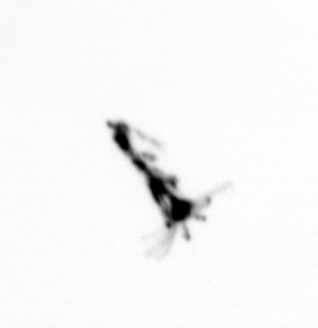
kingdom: Animalia
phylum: Arthropoda
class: Copepoda
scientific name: Copepoda
